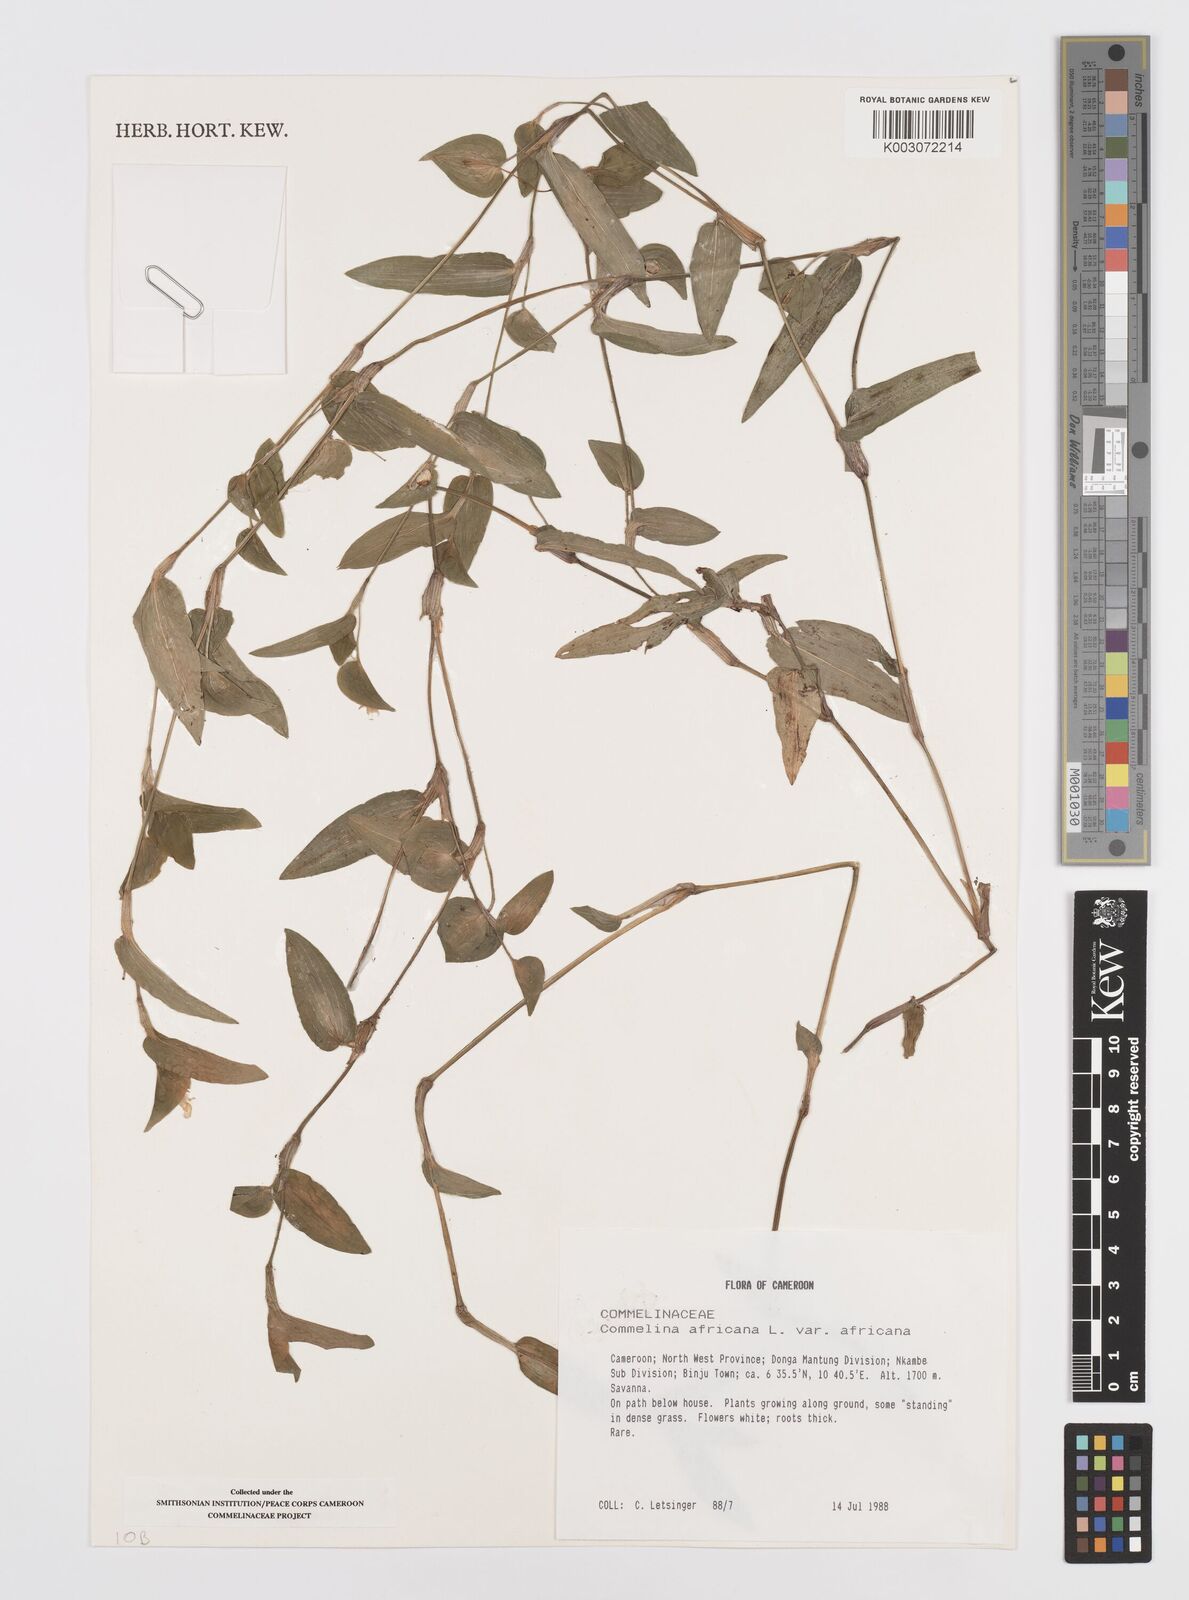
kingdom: Plantae
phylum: Tracheophyta
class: Liliopsida
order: Commelinales
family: Commelinaceae
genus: Commelina
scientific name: Commelina africana
